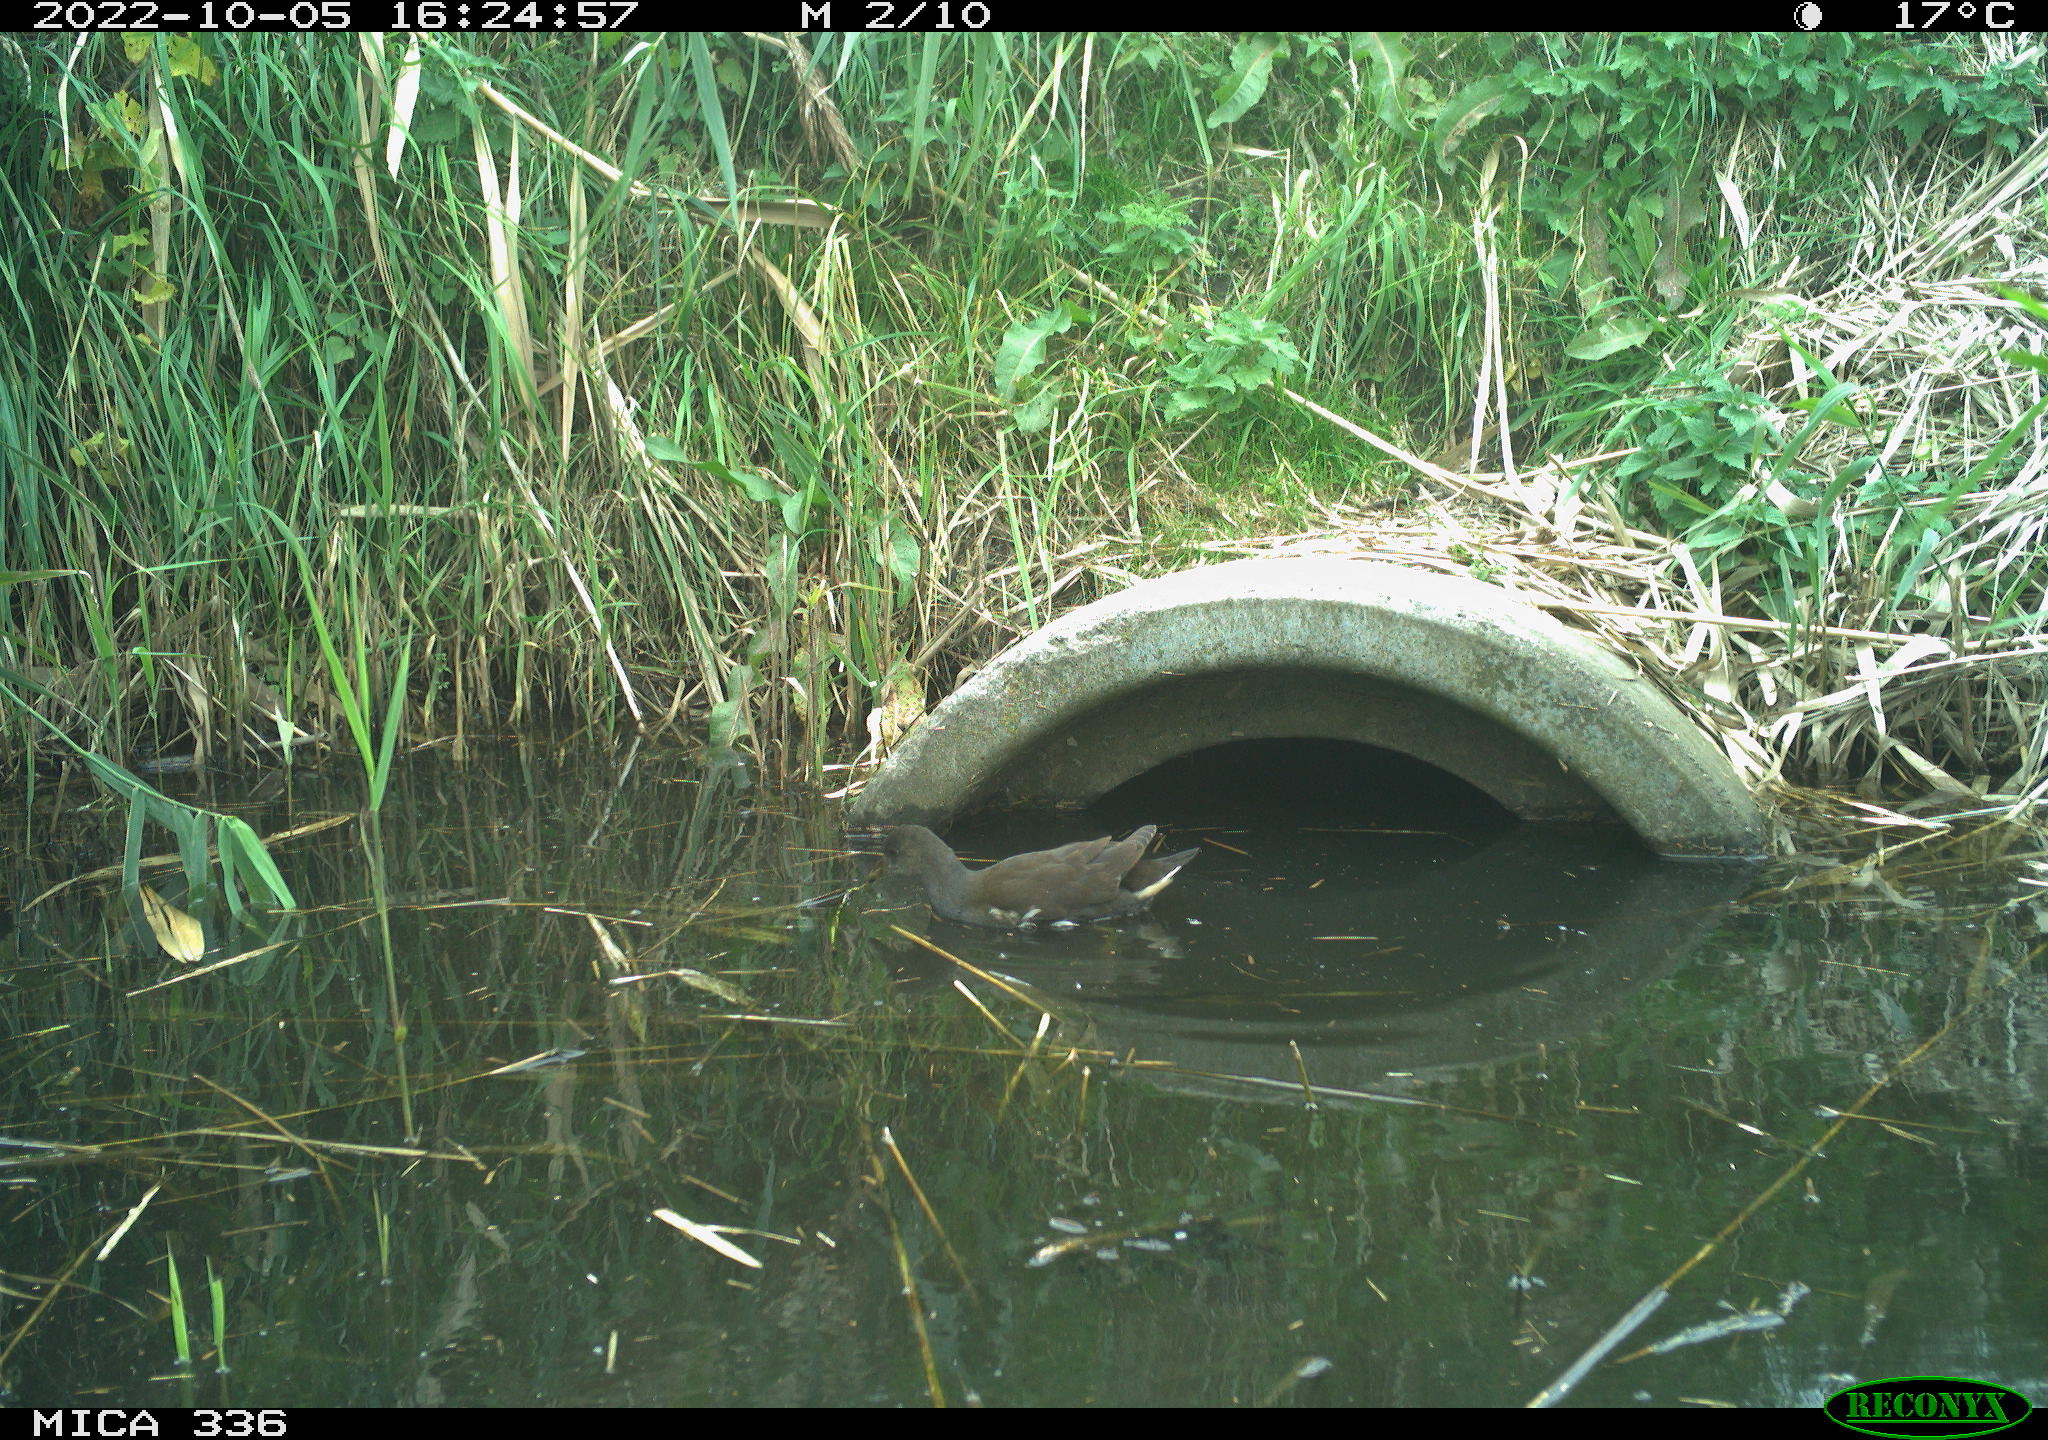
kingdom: Animalia
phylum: Chordata
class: Aves
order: Gruiformes
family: Rallidae
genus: Gallinula
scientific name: Gallinula chloropus
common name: Common moorhen
